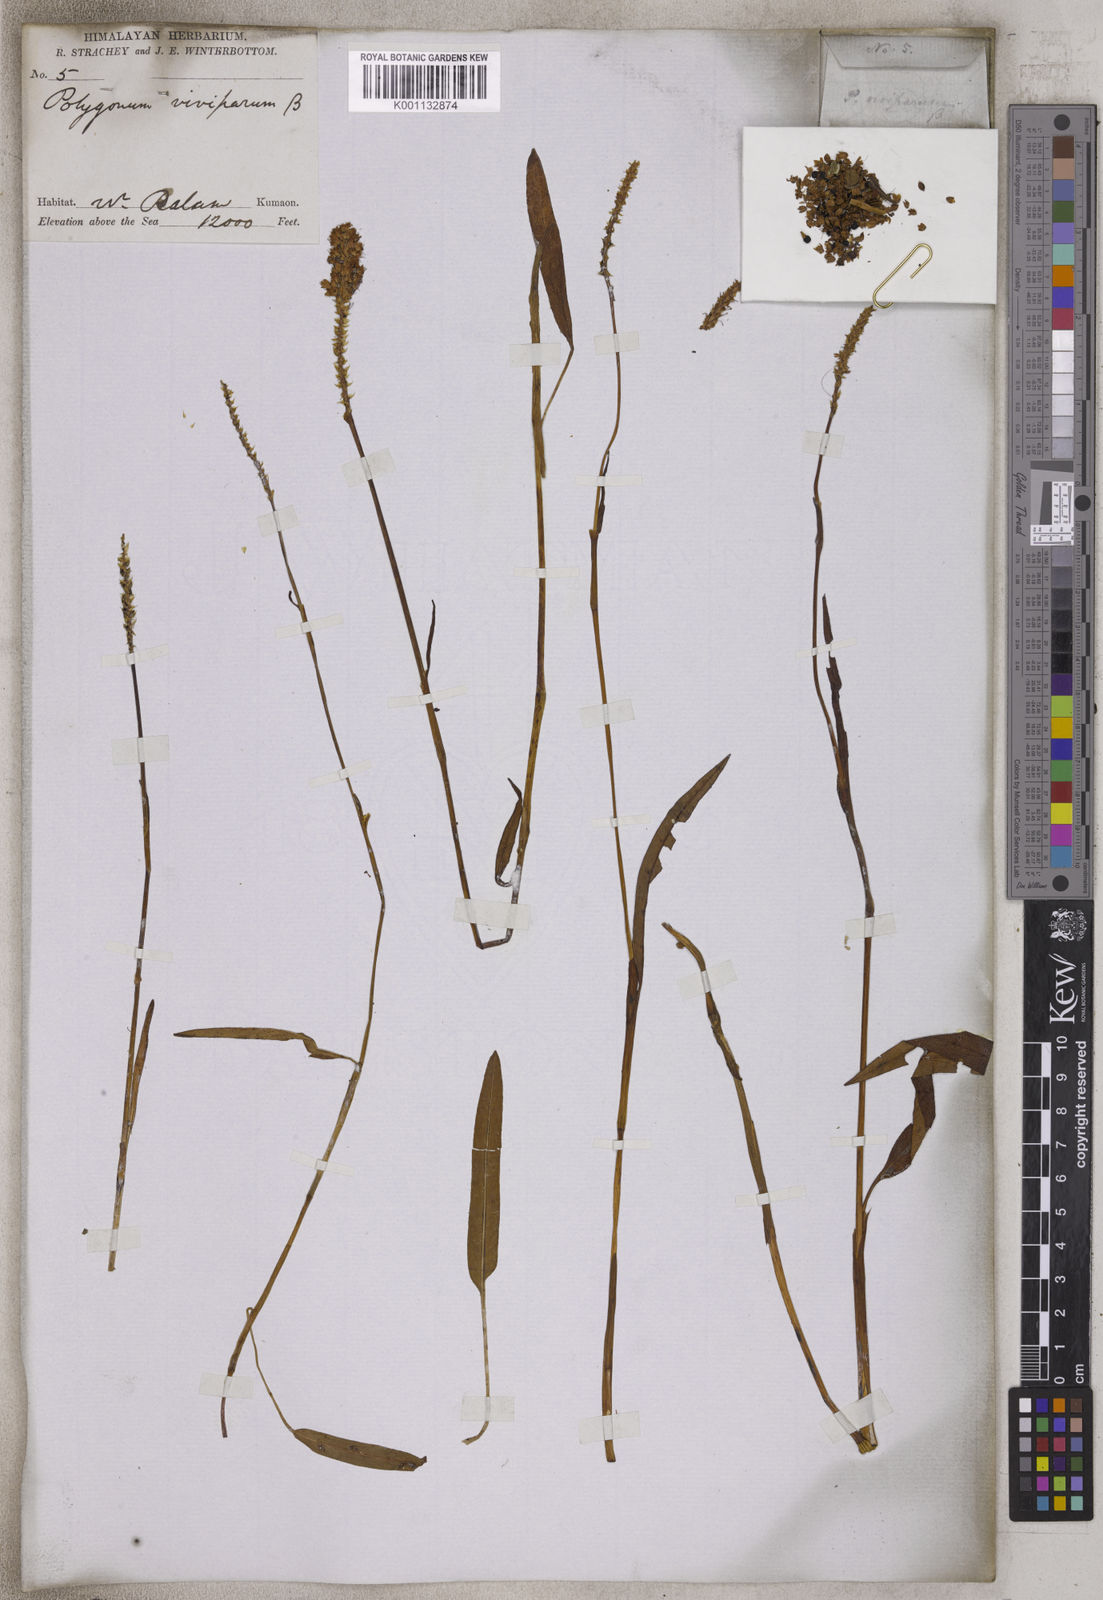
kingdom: Plantae
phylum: Tracheophyta
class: Magnoliopsida
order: Caryophyllales
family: Polygonaceae
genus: Bistorta
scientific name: Bistorta vivipara
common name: Alpine bistort
